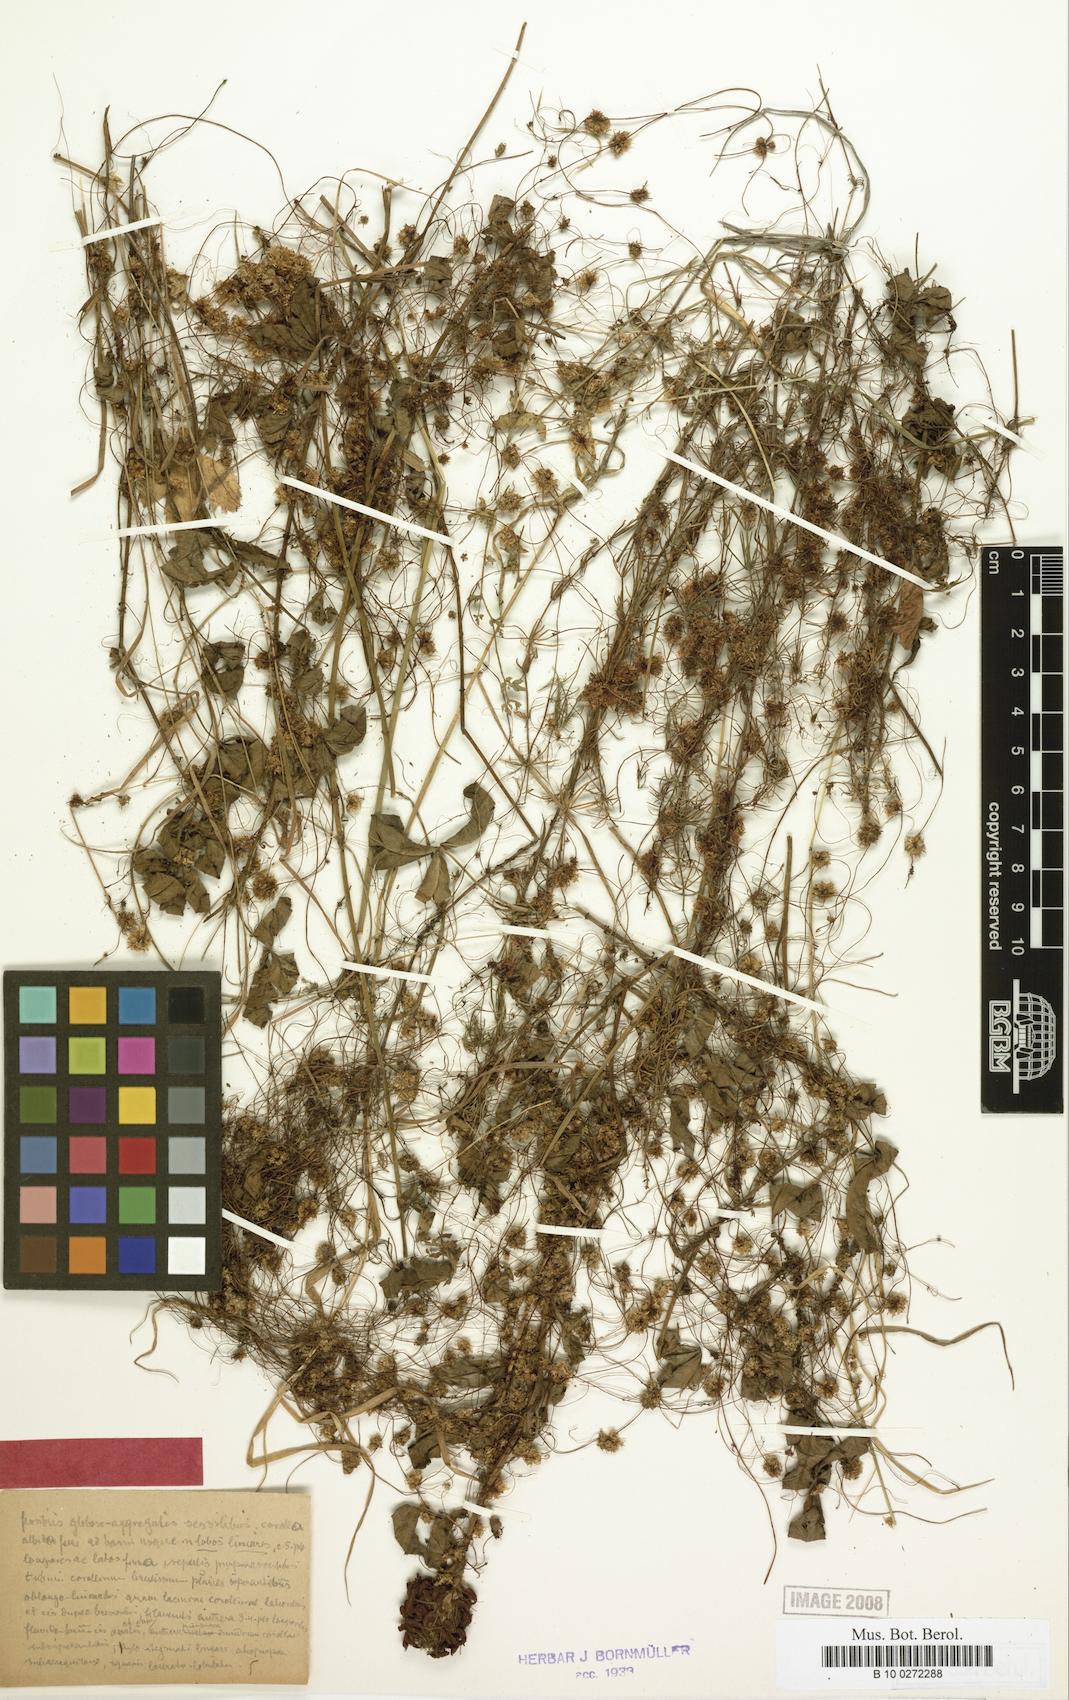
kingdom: Plantae
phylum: Tracheophyta
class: Magnoliopsida
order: Solanales
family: Convolvulaceae
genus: Cuscuta
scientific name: Cuscuta epithymum
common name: Clover dodder
